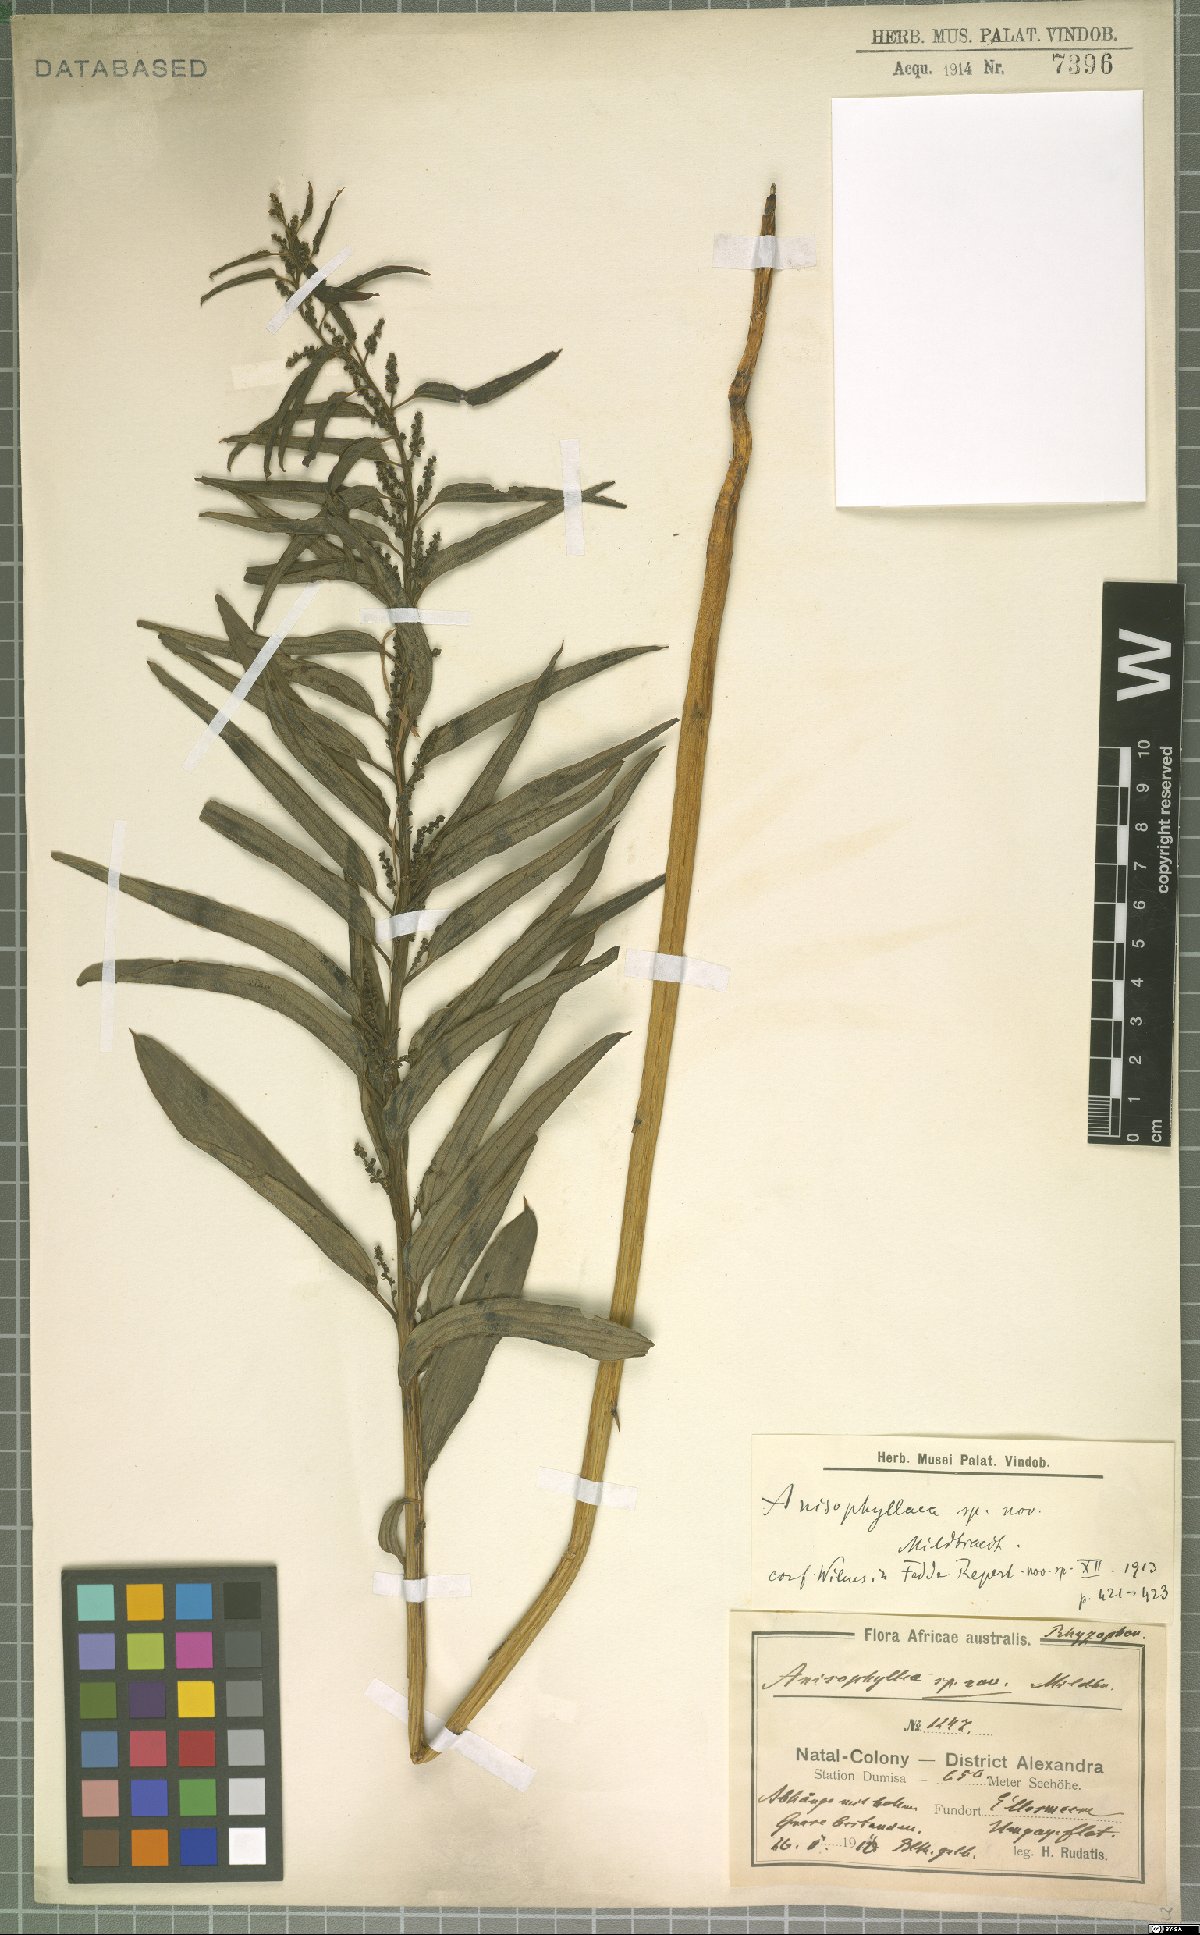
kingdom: Plantae
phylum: Tracheophyta
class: Magnoliopsida
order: Cucurbitales
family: Anisophylleaceae
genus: Anisophyllea
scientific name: Anisophyllea
